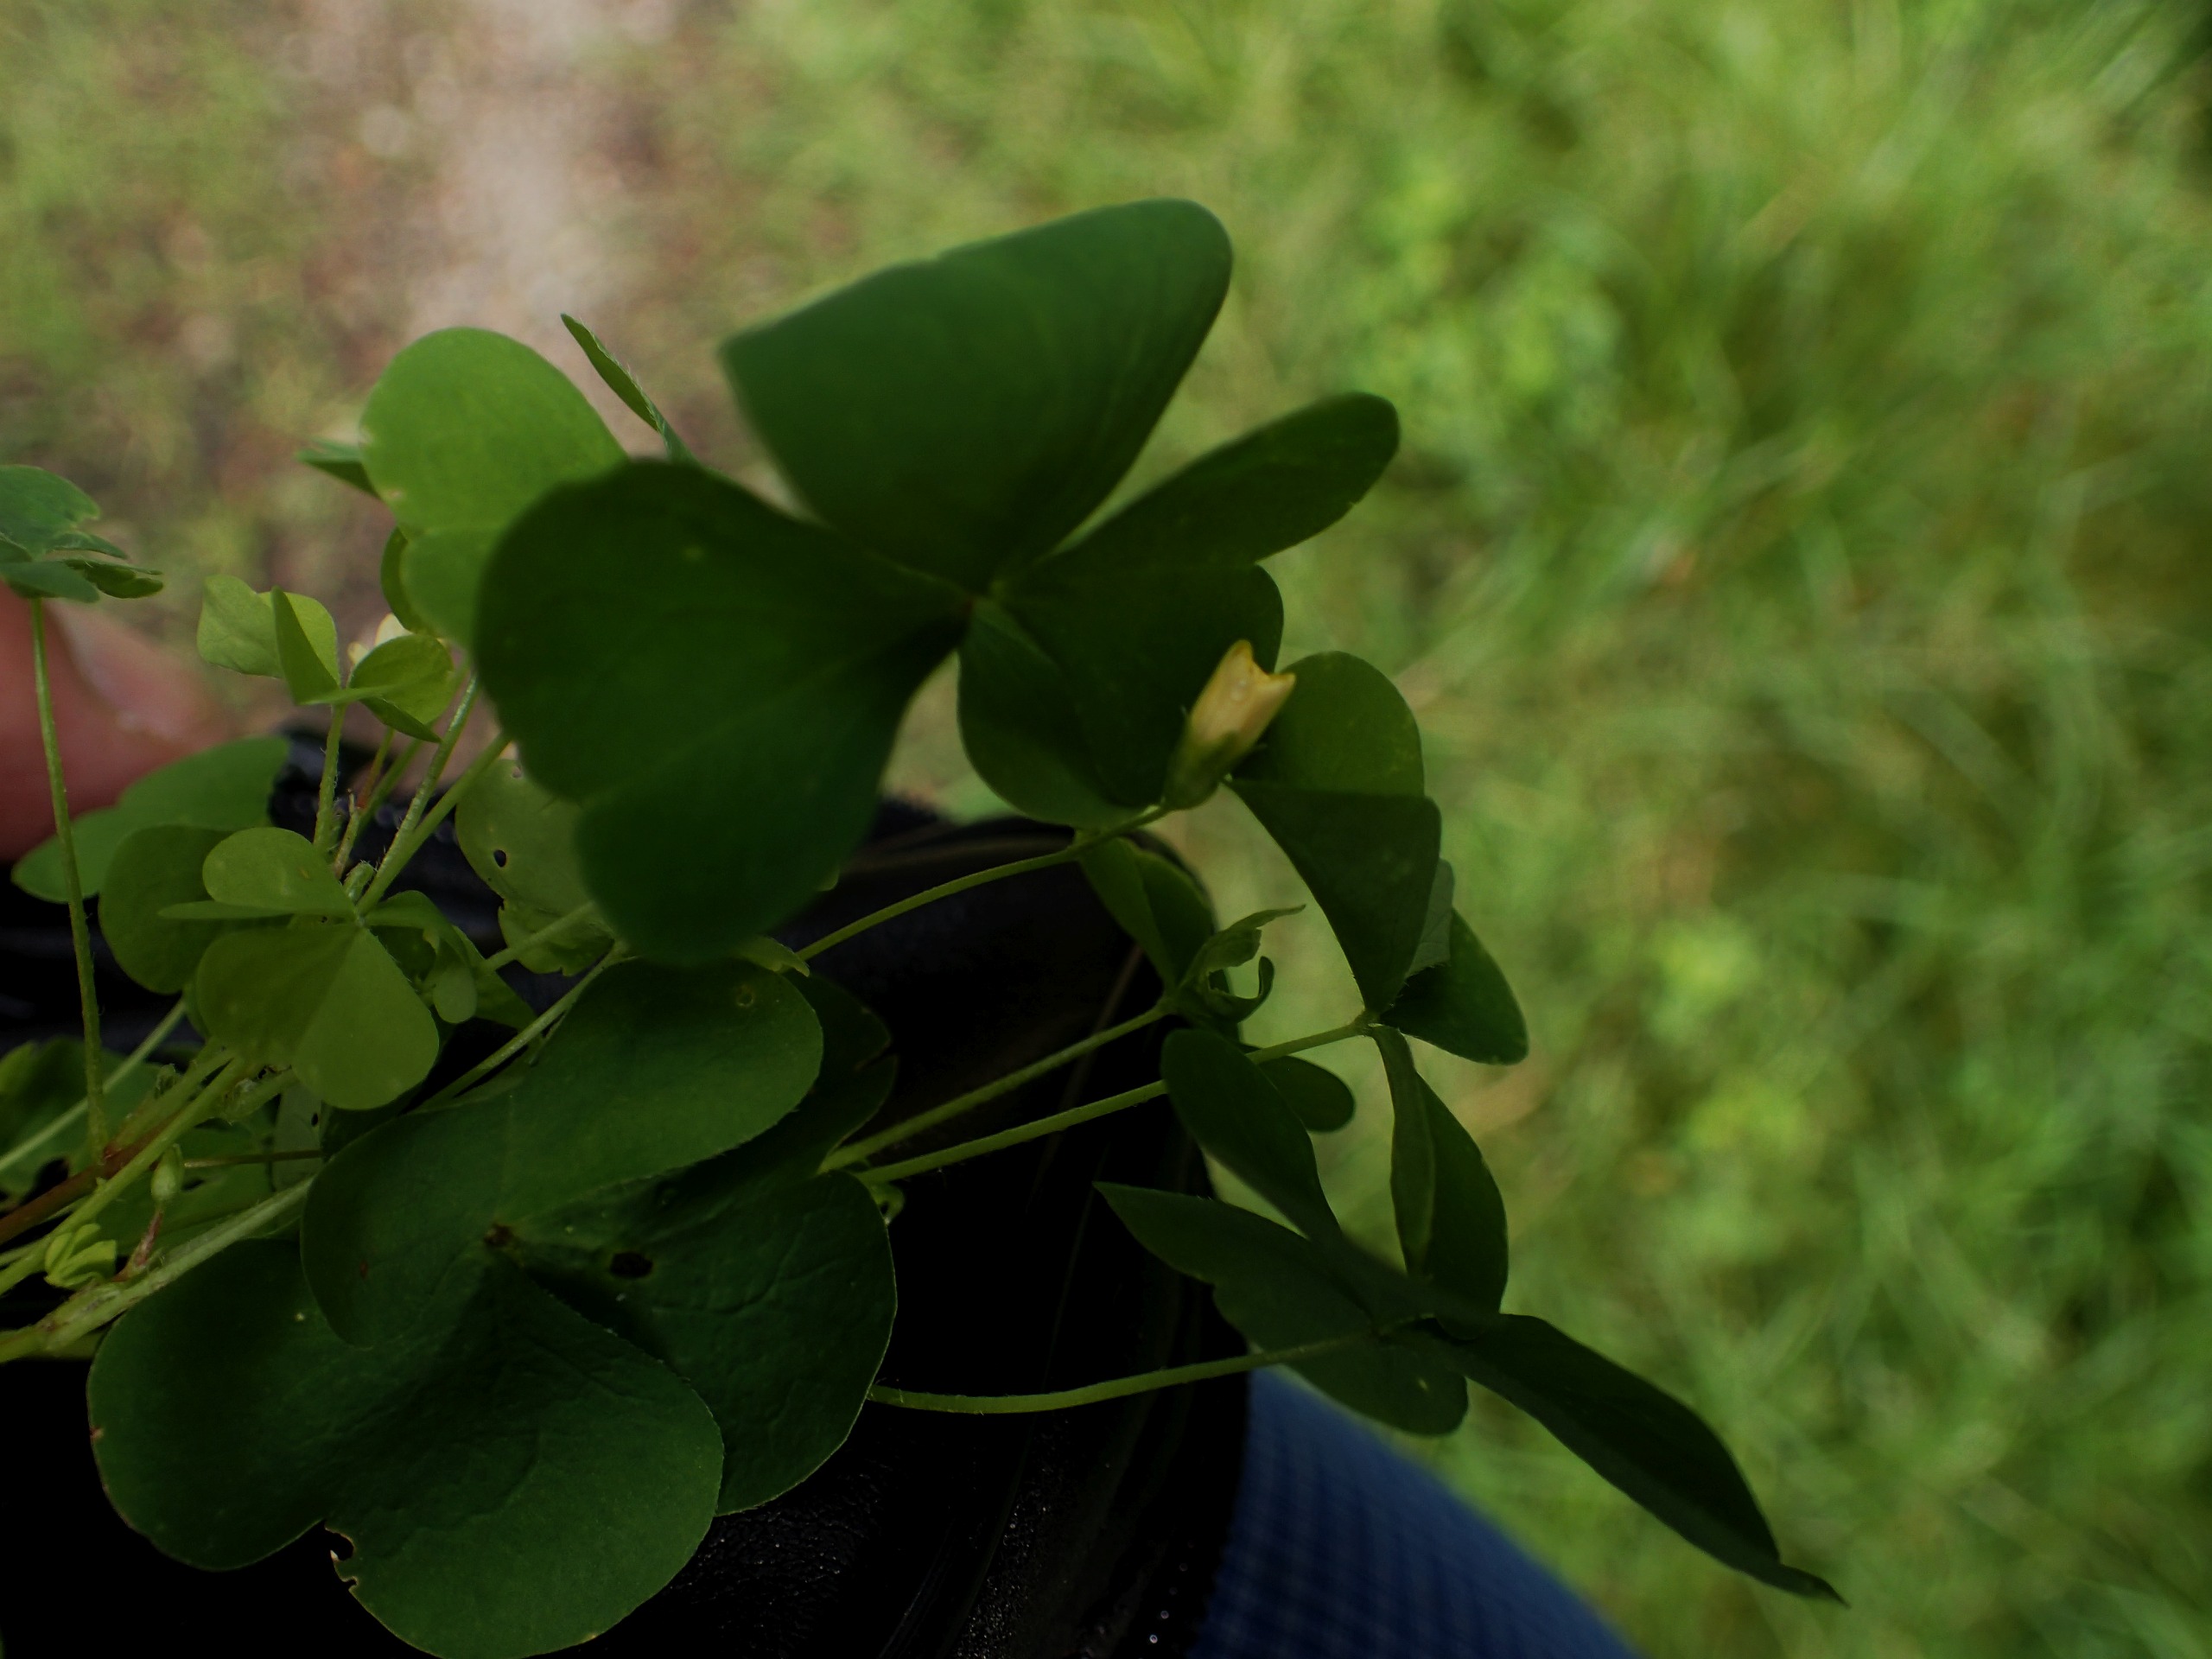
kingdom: Plantae
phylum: Tracheophyta
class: Magnoliopsida
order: Oxalidales
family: Oxalidaceae
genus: Oxalis
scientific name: Oxalis stricta
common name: Rank surkløver
